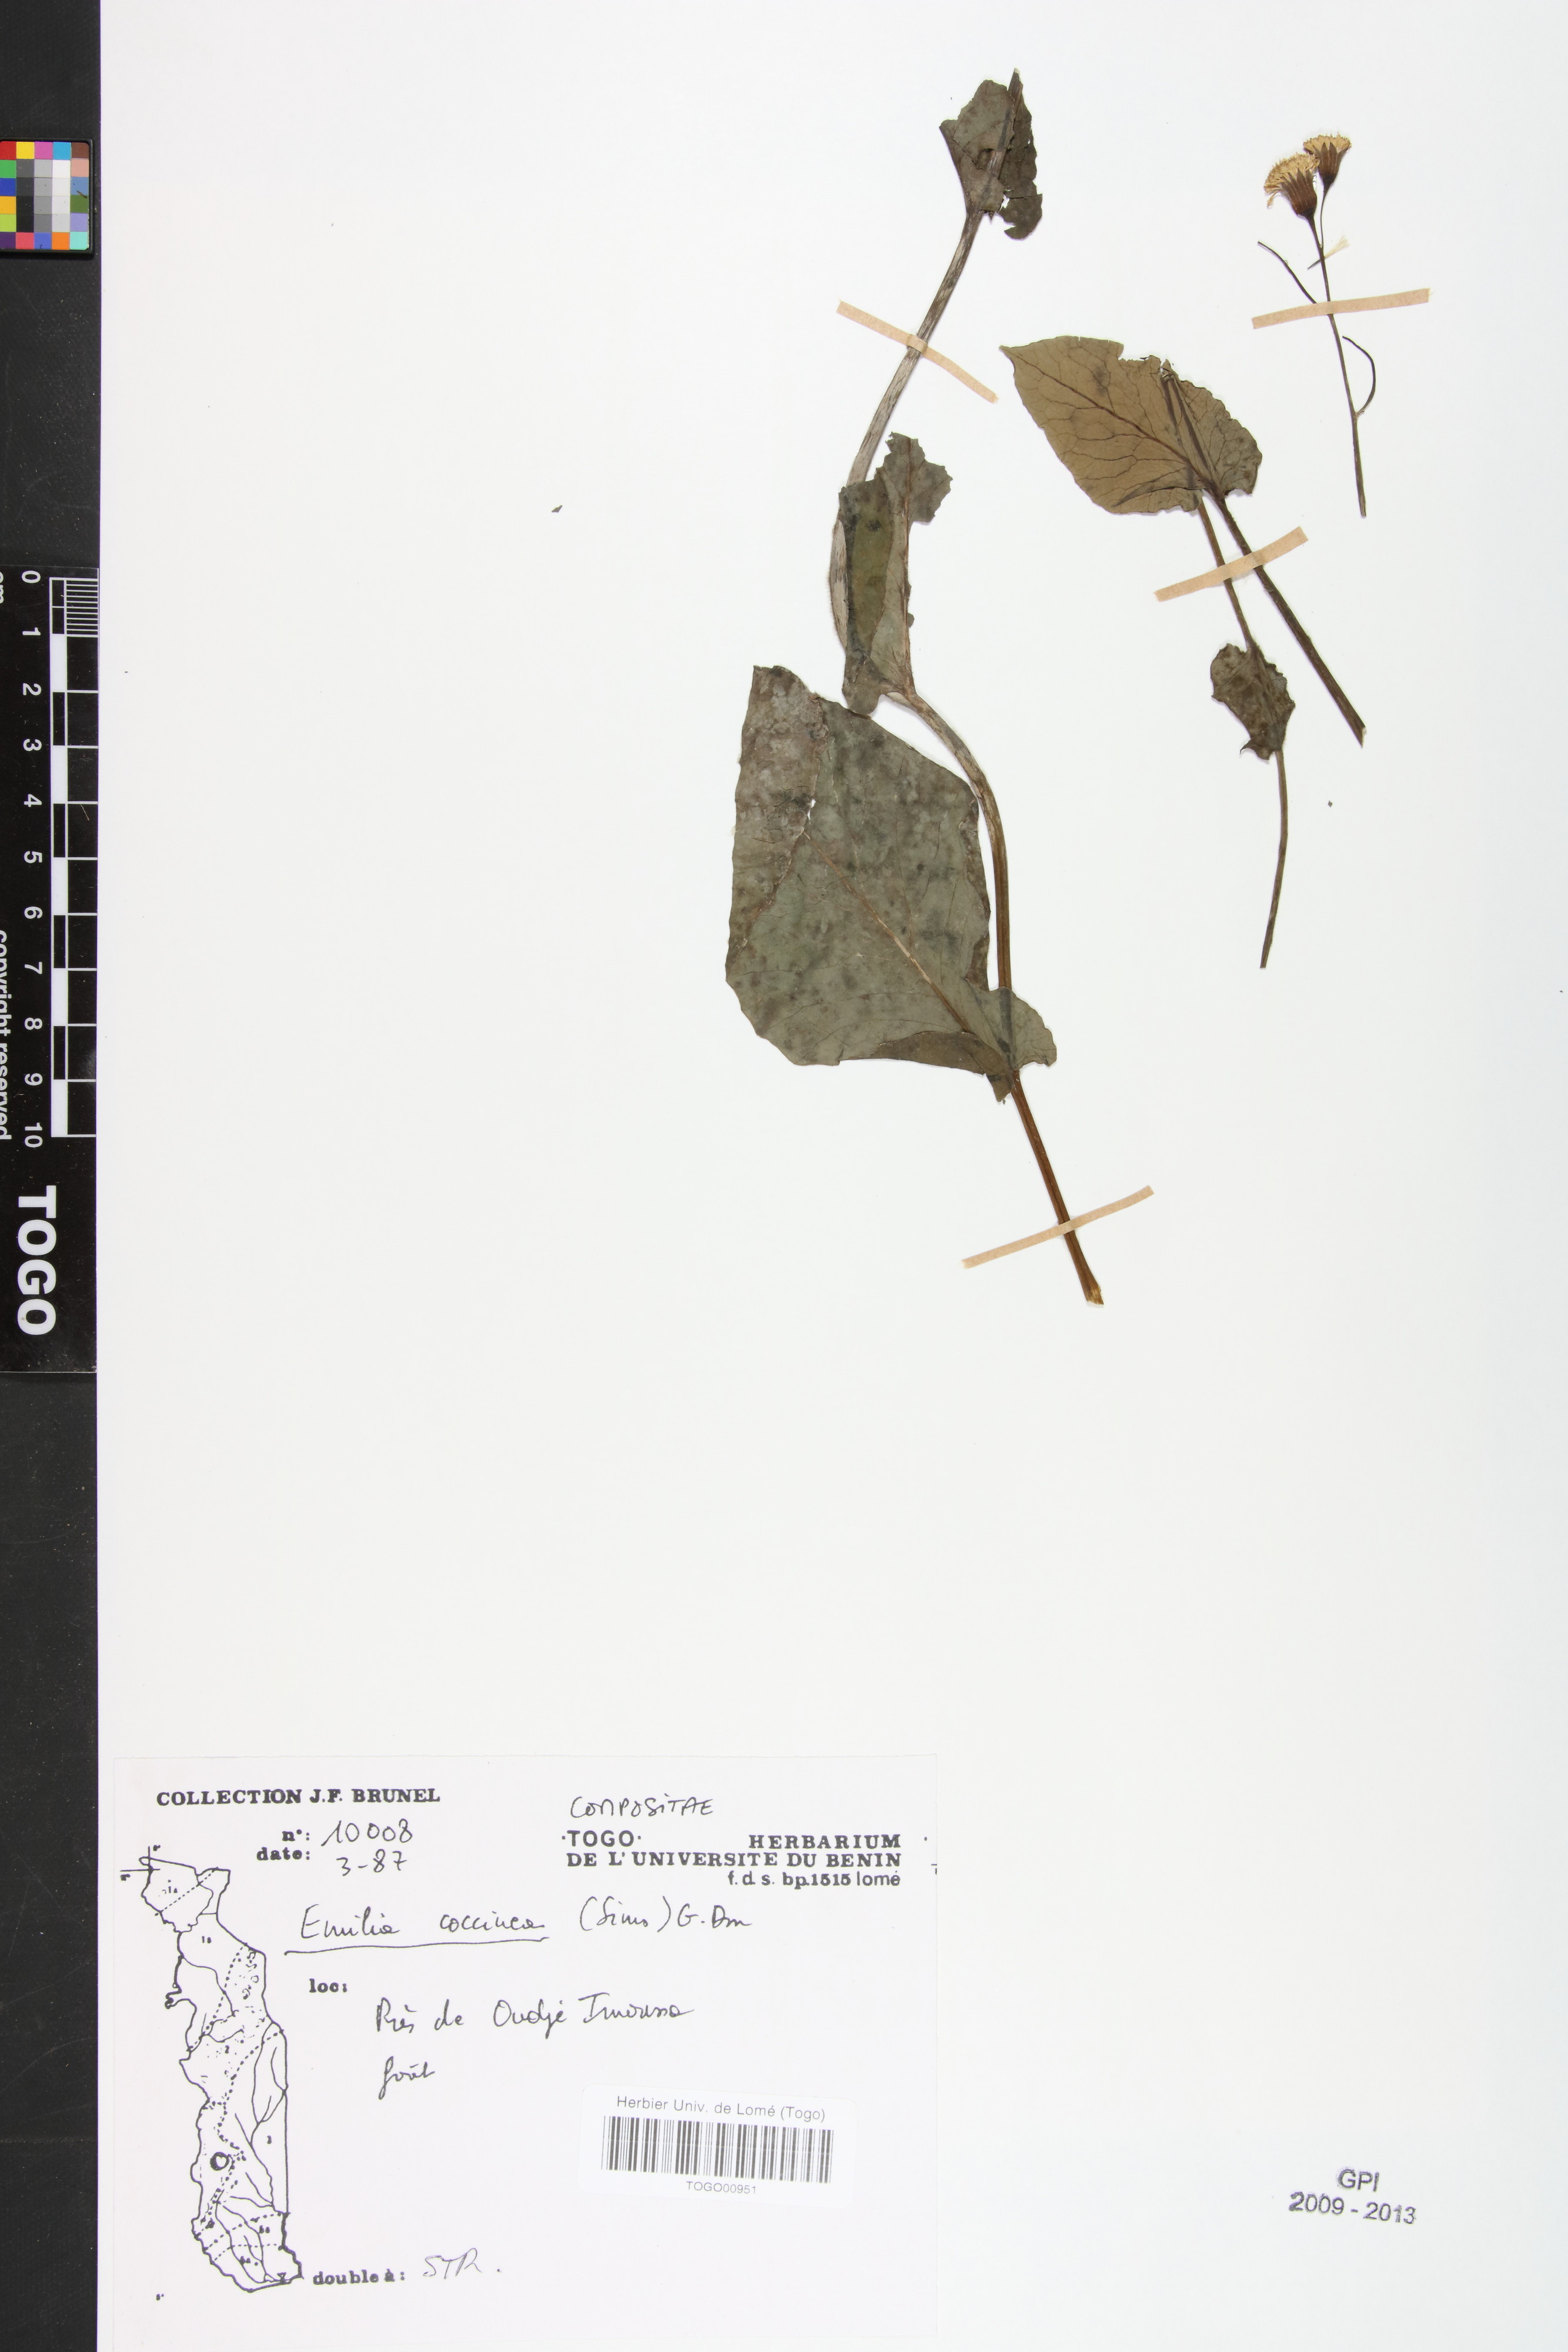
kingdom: Plantae
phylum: Tracheophyta
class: Magnoliopsida
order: Asterales
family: Asteraceae
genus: Emilia
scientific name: Emilia coccinea
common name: Scarlet tasselflower
